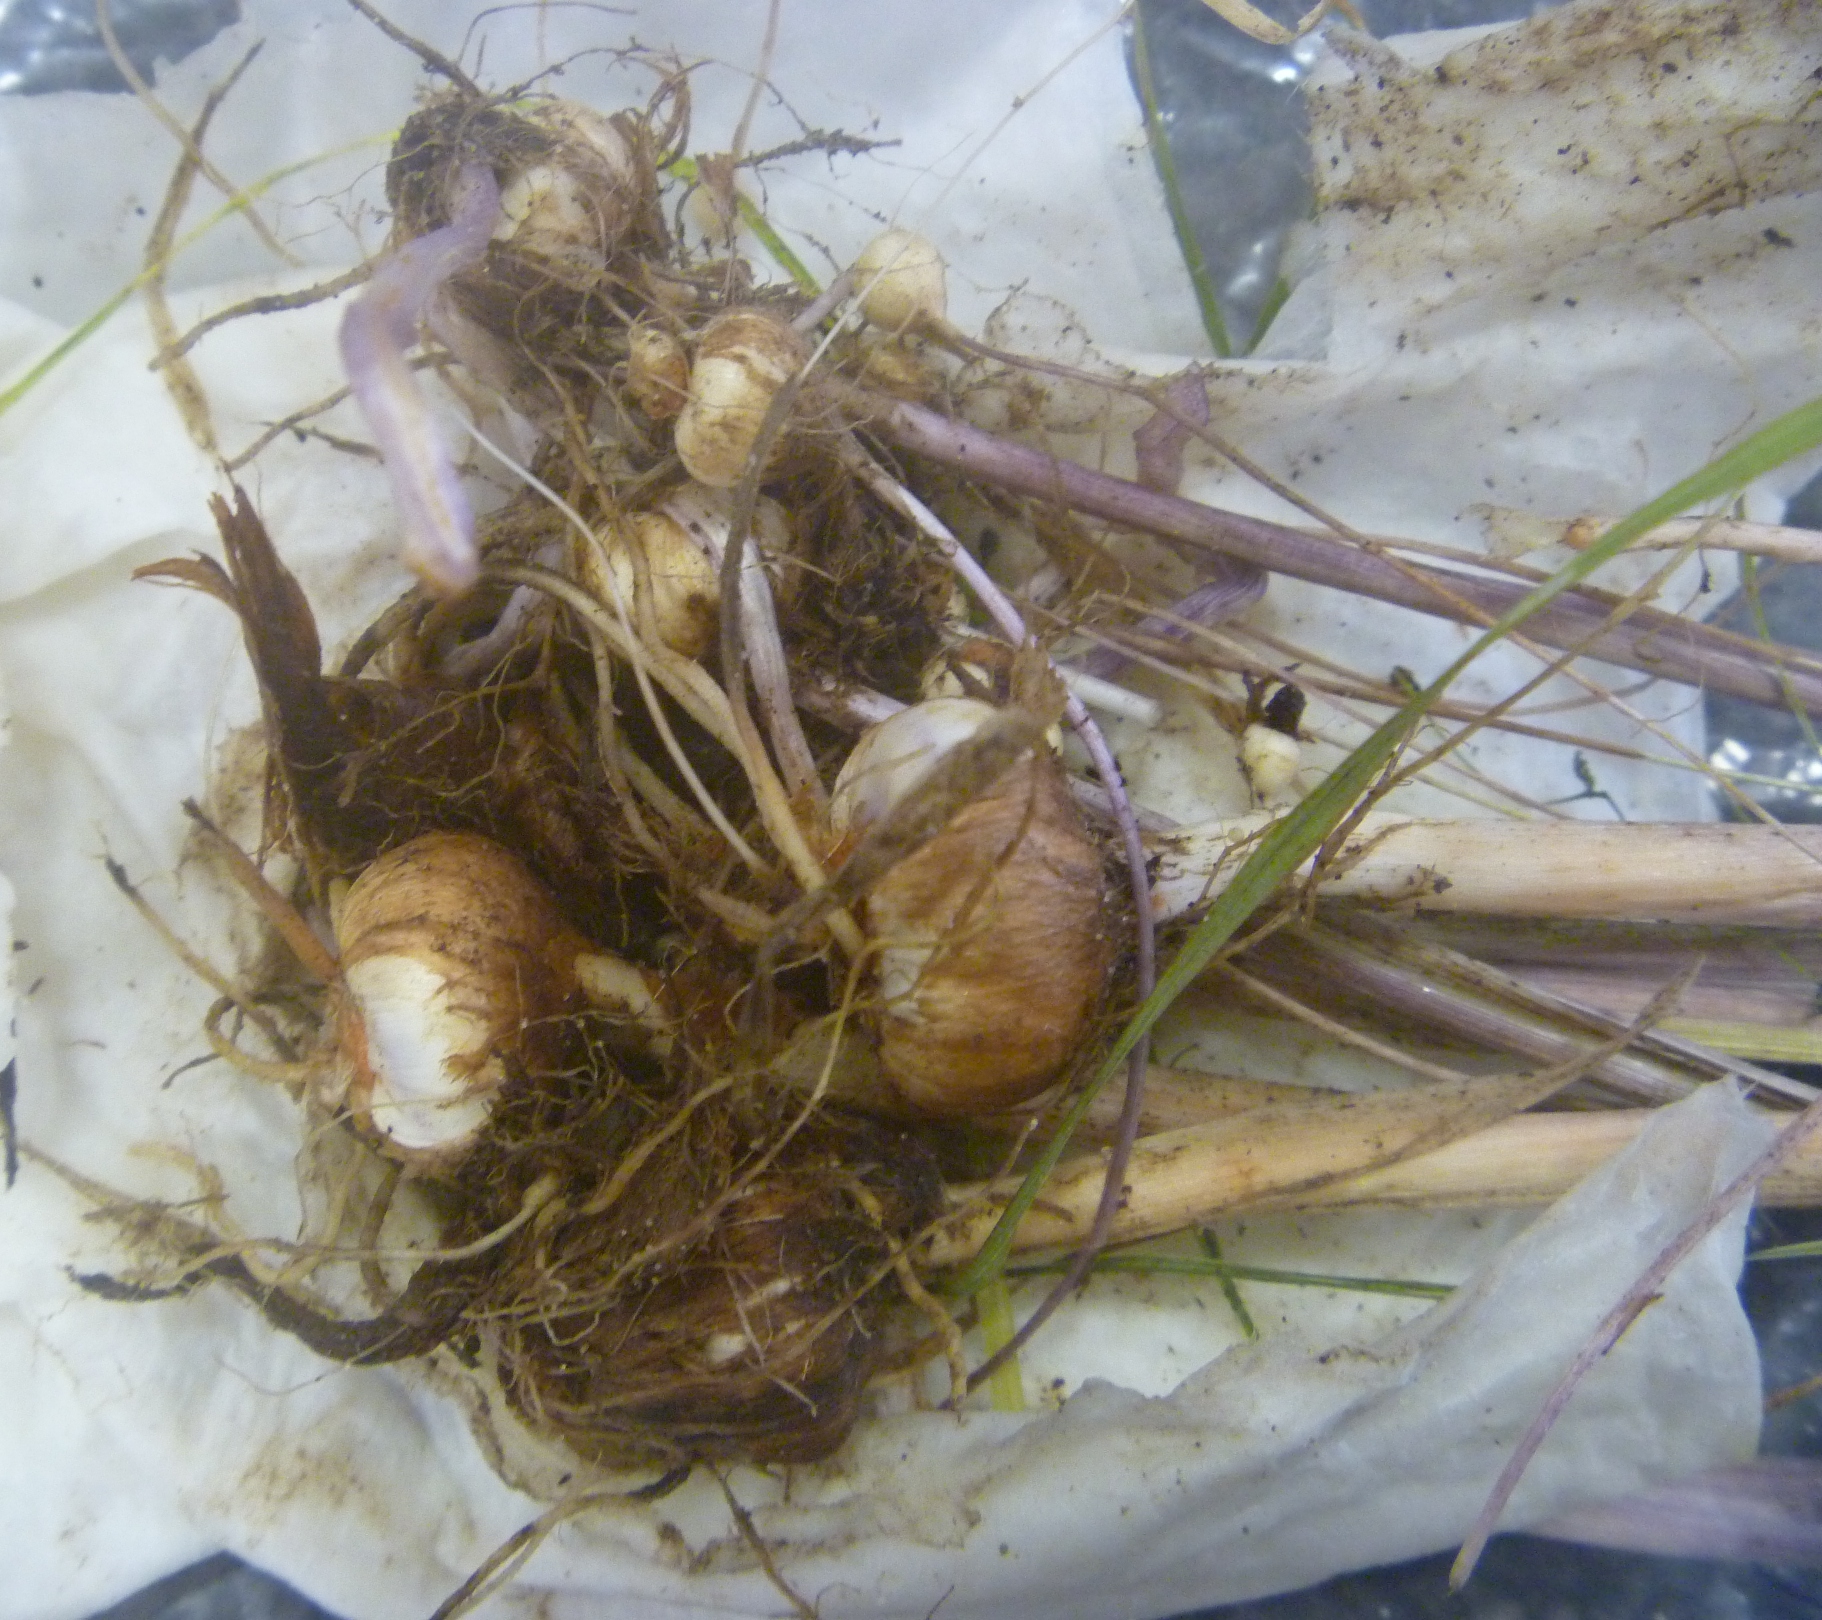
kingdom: Plantae
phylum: Tracheophyta
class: Liliopsida
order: Asparagales
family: Iridaceae
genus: Ixia
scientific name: Ixia paniculata
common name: Tubular corn-lily
